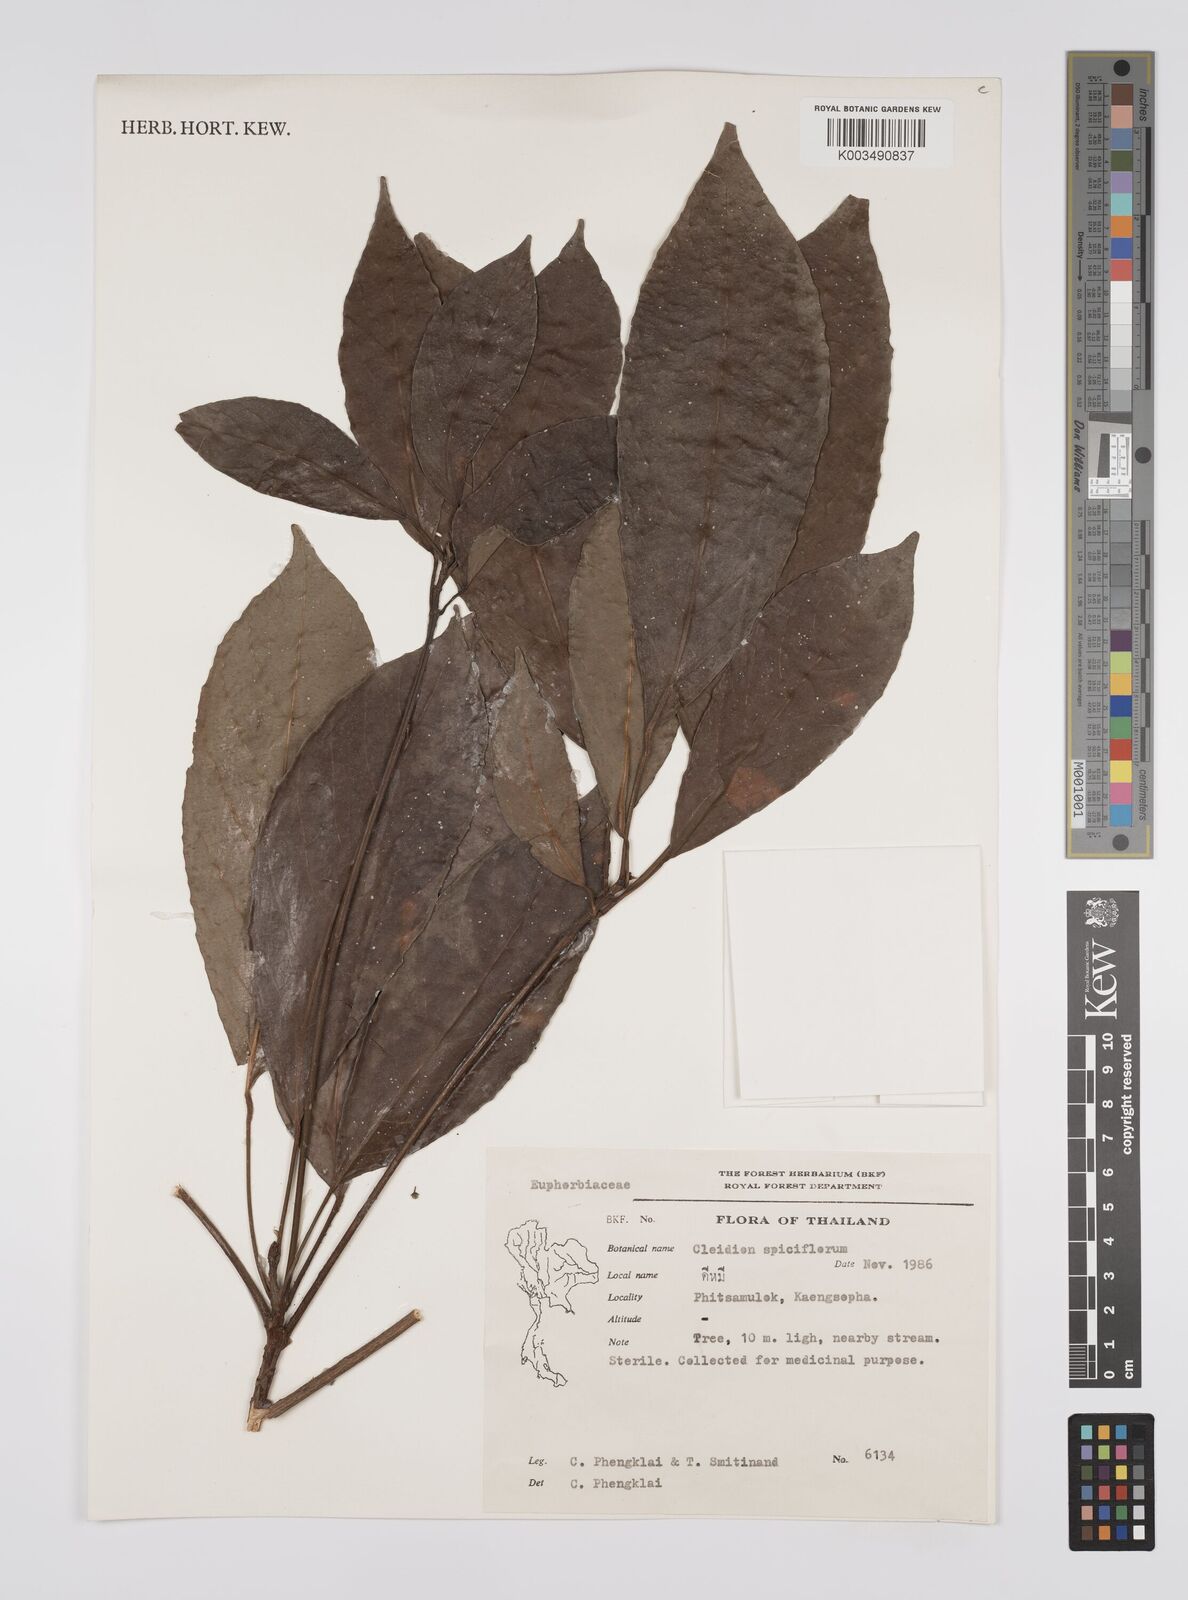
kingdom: Plantae
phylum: Tracheophyta
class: Magnoliopsida
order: Malpighiales
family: Euphorbiaceae
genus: Acalypha
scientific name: Acalypha spiciflora
